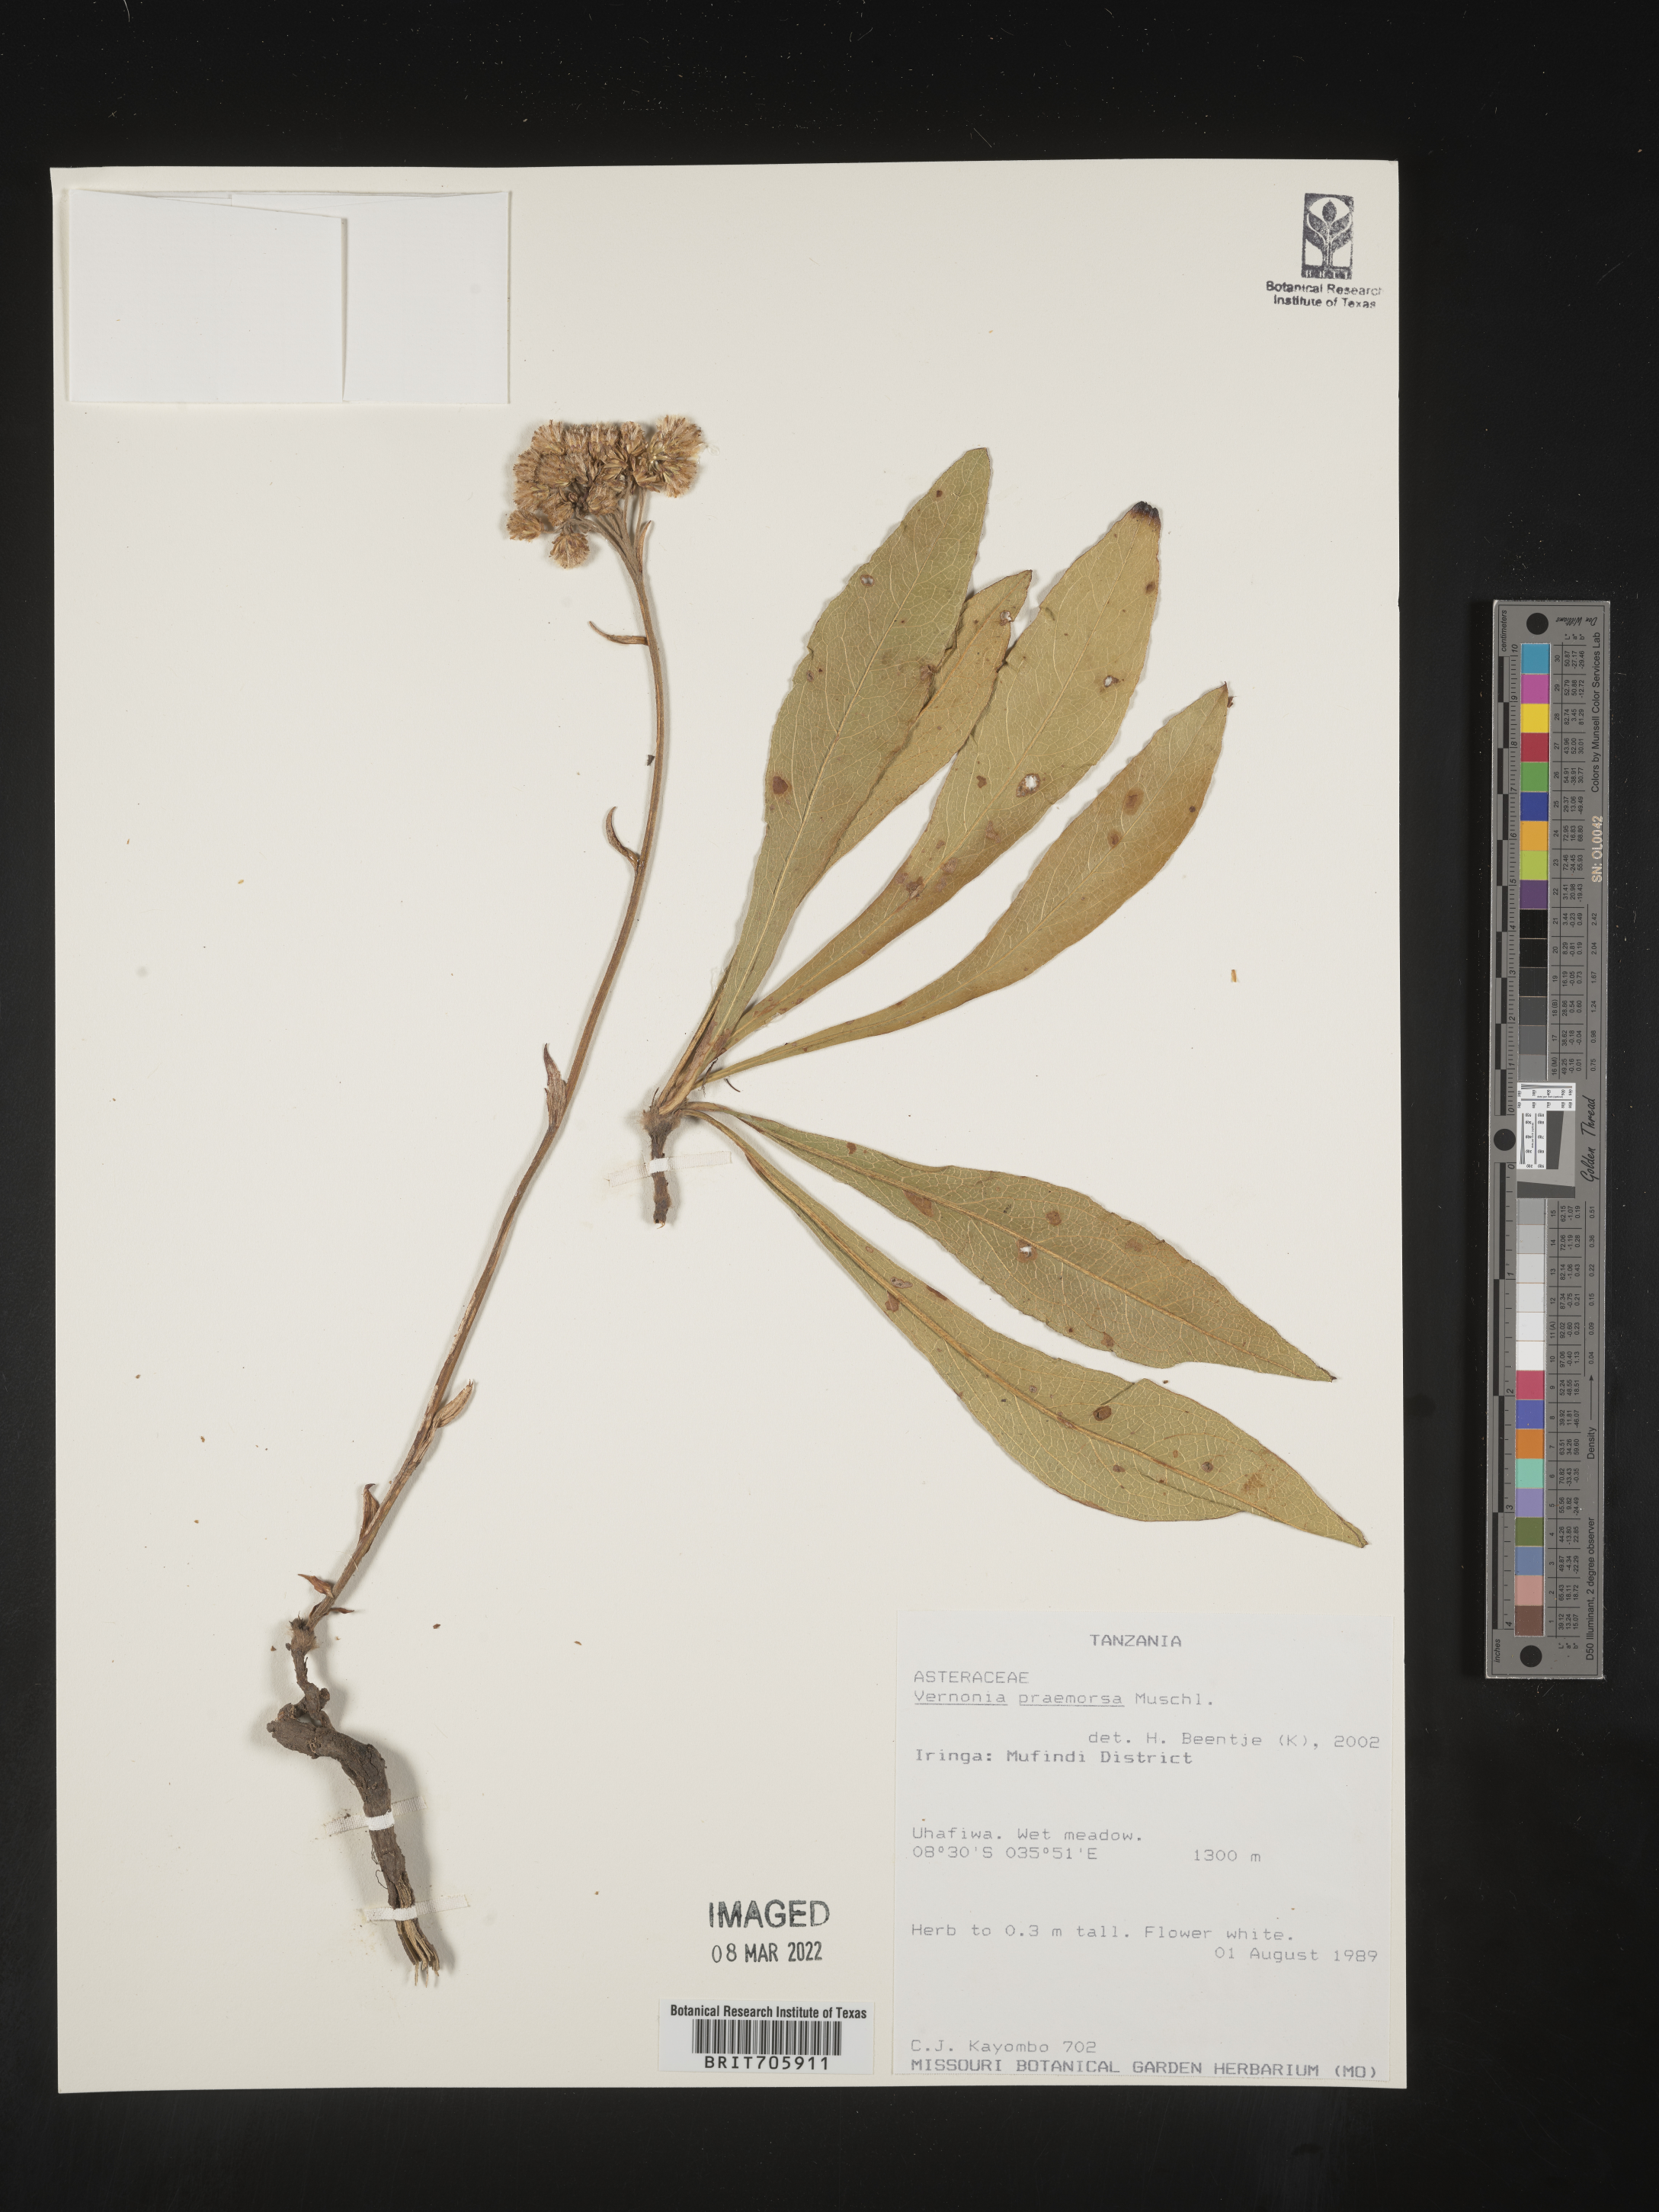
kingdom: Plantae
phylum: Tracheophyta
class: Magnoliopsida
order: Asterales
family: Asteraceae
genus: Vernonia
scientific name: Vernonia
